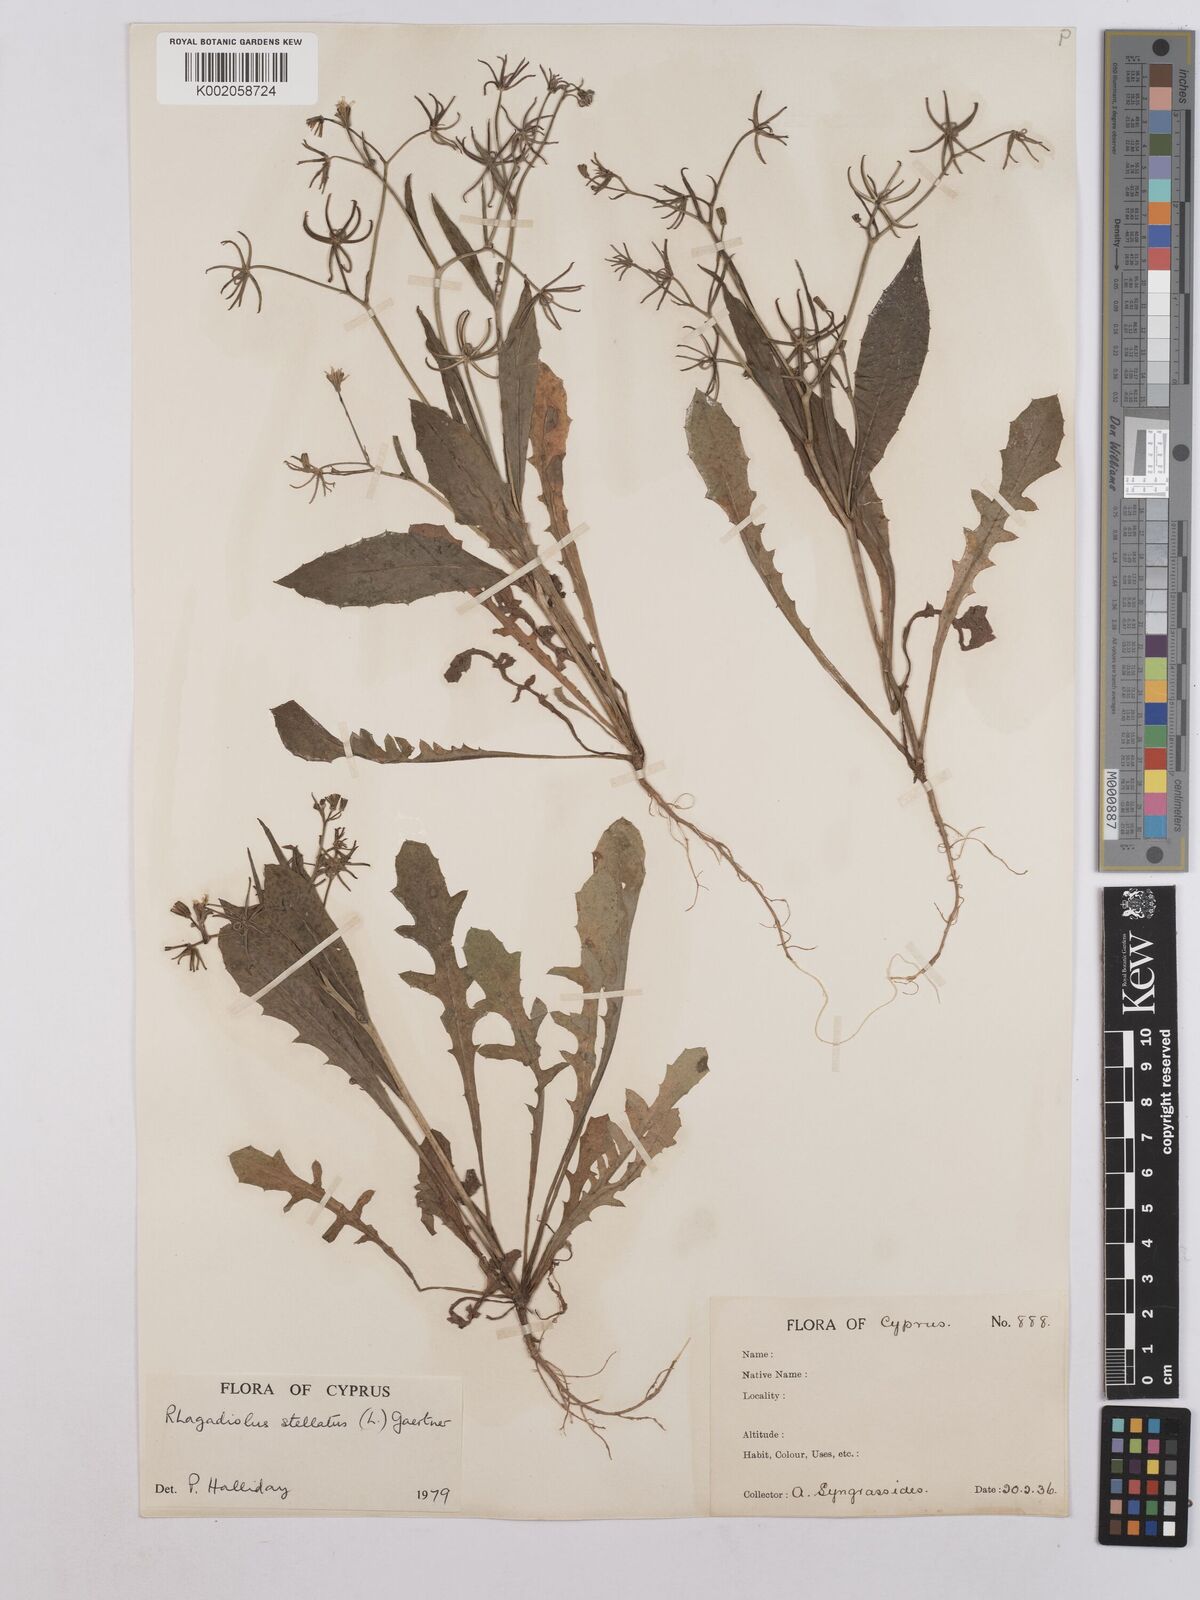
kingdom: Plantae
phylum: Tracheophyta
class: Magnoliopsida
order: Asterales
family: Asteraceae
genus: Rhagadiolus
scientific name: Rhagadiolus stellatus
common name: Star hawkbit
